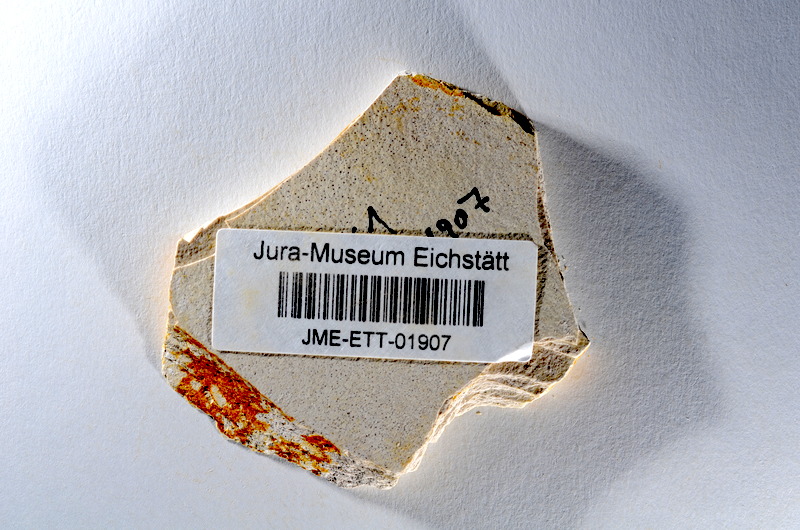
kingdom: Animalia
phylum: Chordata
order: Salmoniformes
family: Orthogonikleithridae
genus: Orthogonikleithrus
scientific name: Orthogonikleithrus hoelli
